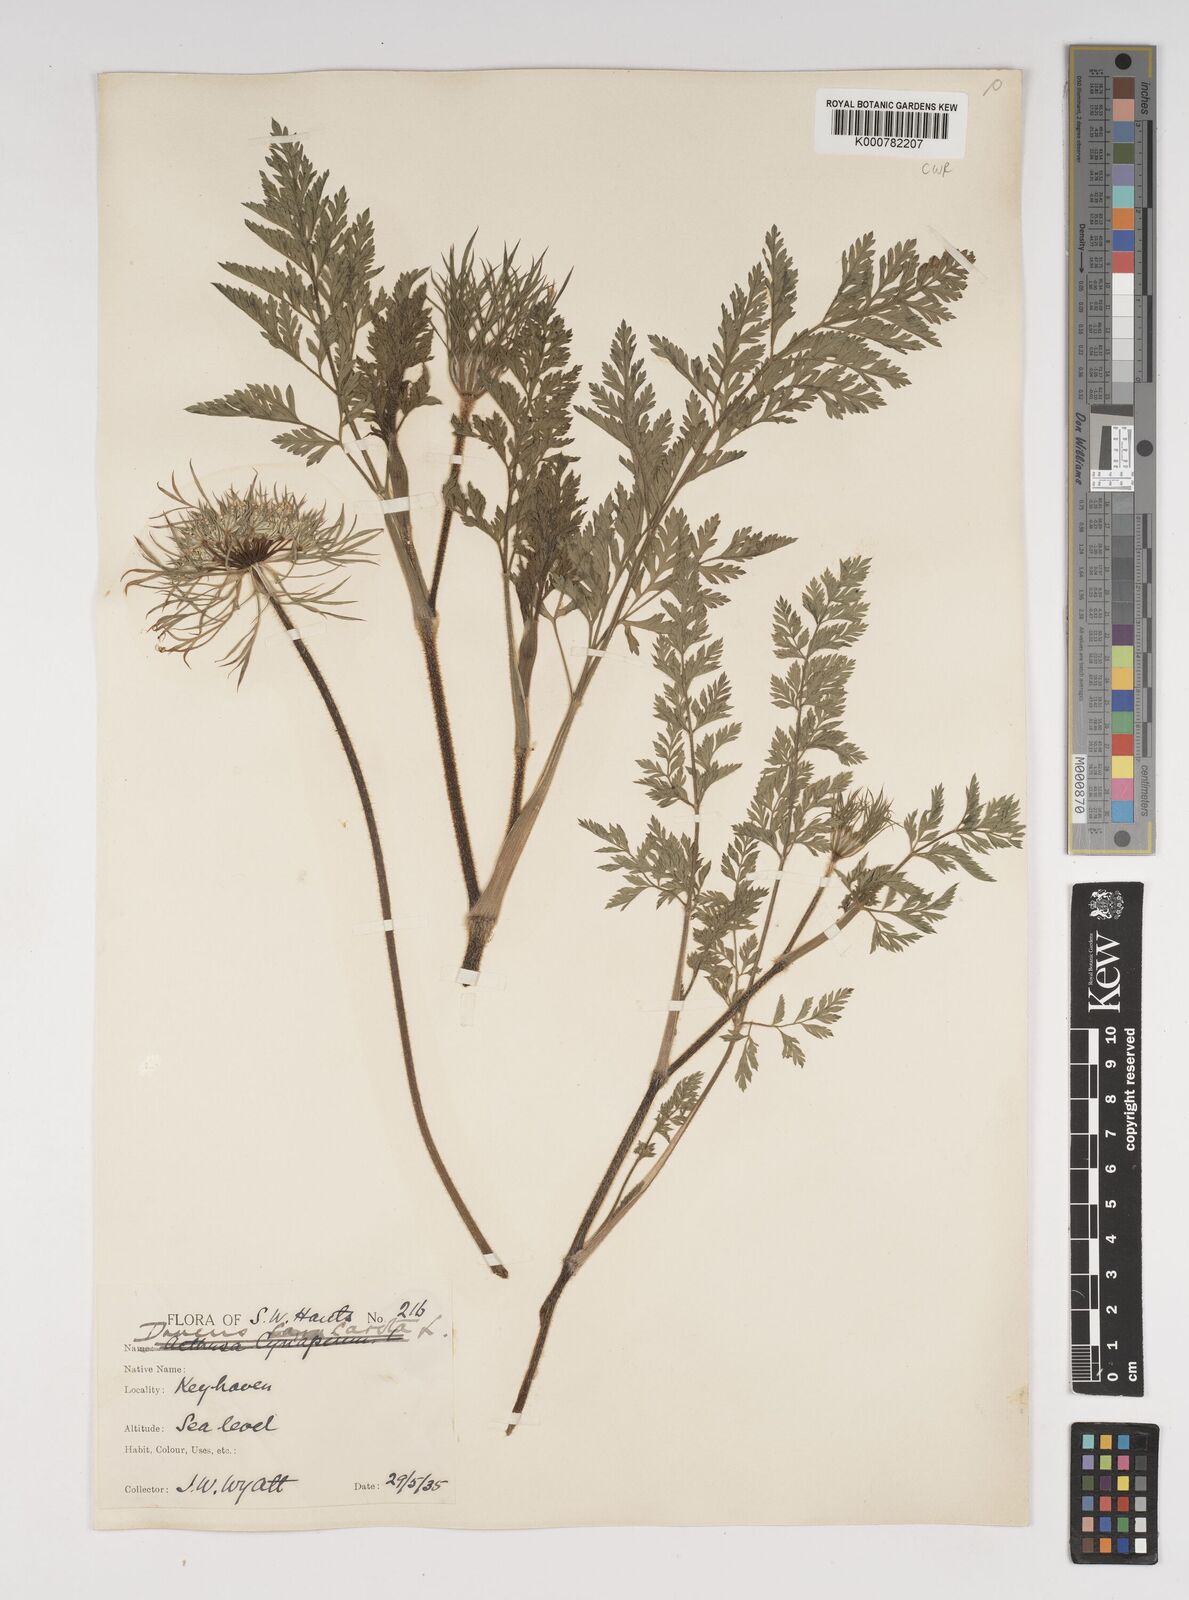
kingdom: Plantae
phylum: Tracheophyta
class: Magnoliopsida
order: Apiales
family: Apiaceae
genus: Daucus
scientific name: Daucus carota
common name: Wild carrot
